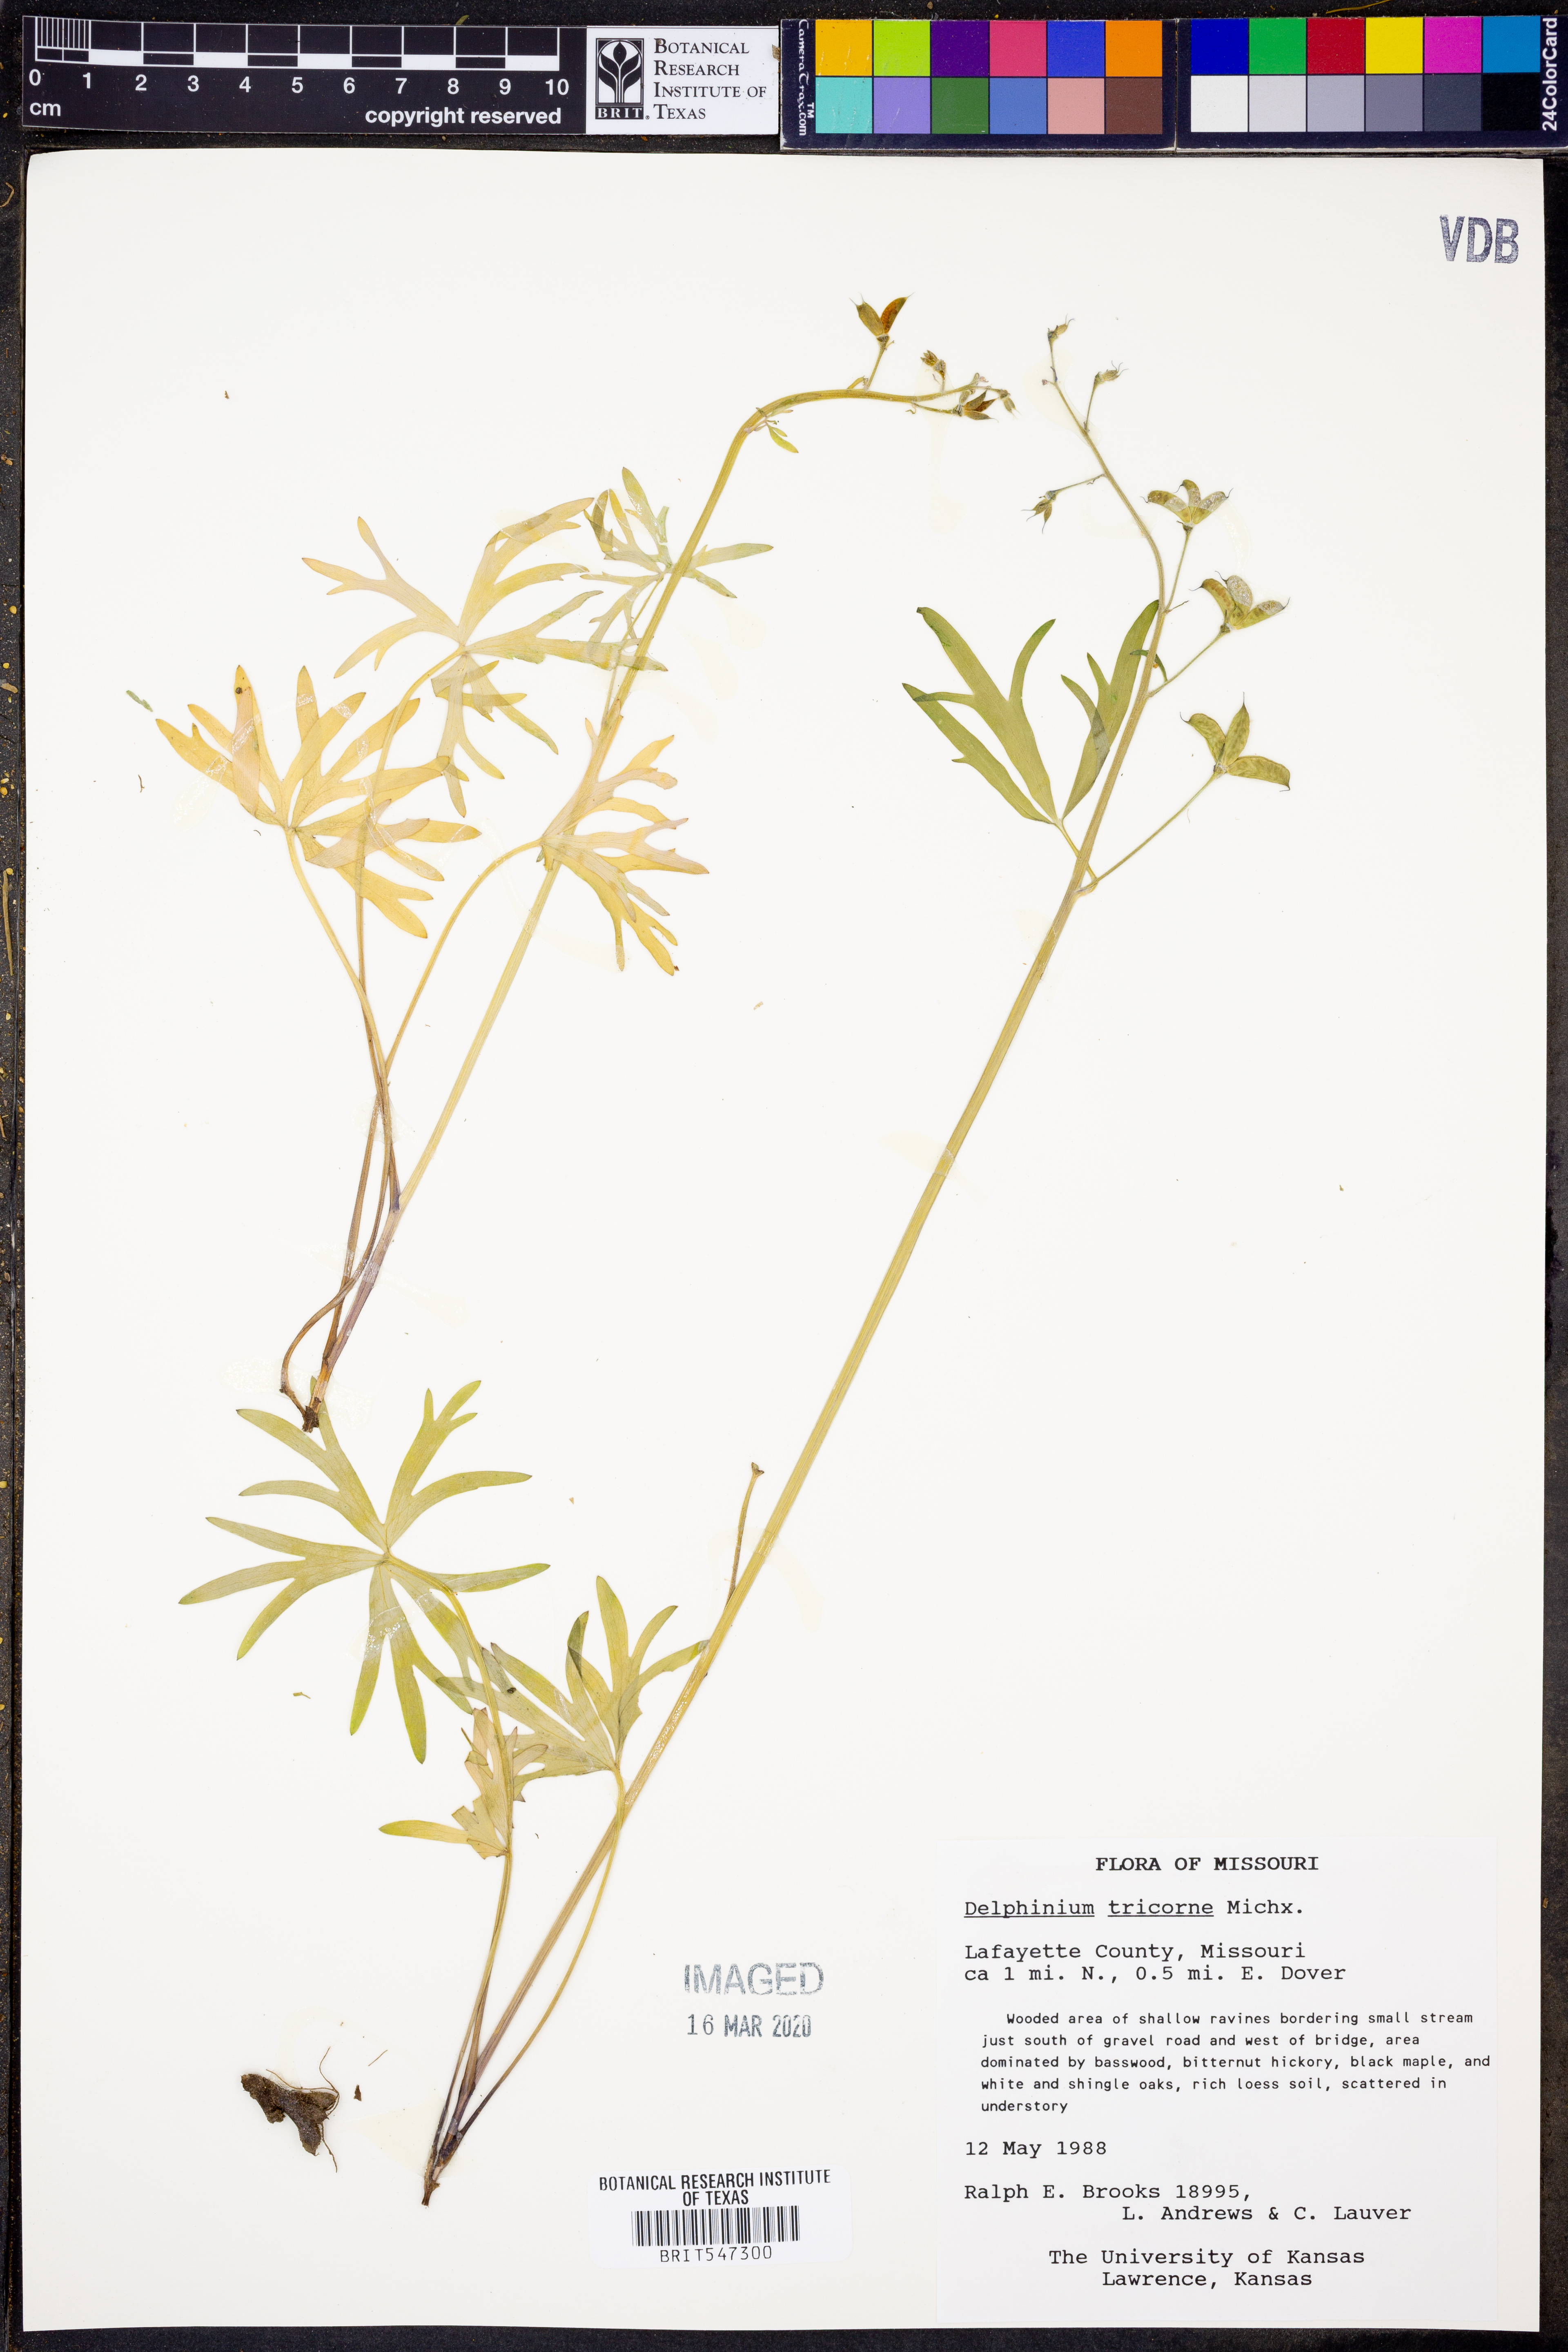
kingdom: Plantae
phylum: Tracheophyta
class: Magnoliopsida
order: Ranunculales
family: Ranunculaceae
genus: Delphinium
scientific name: Delphinium tricorne
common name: Dwarf larkspur
